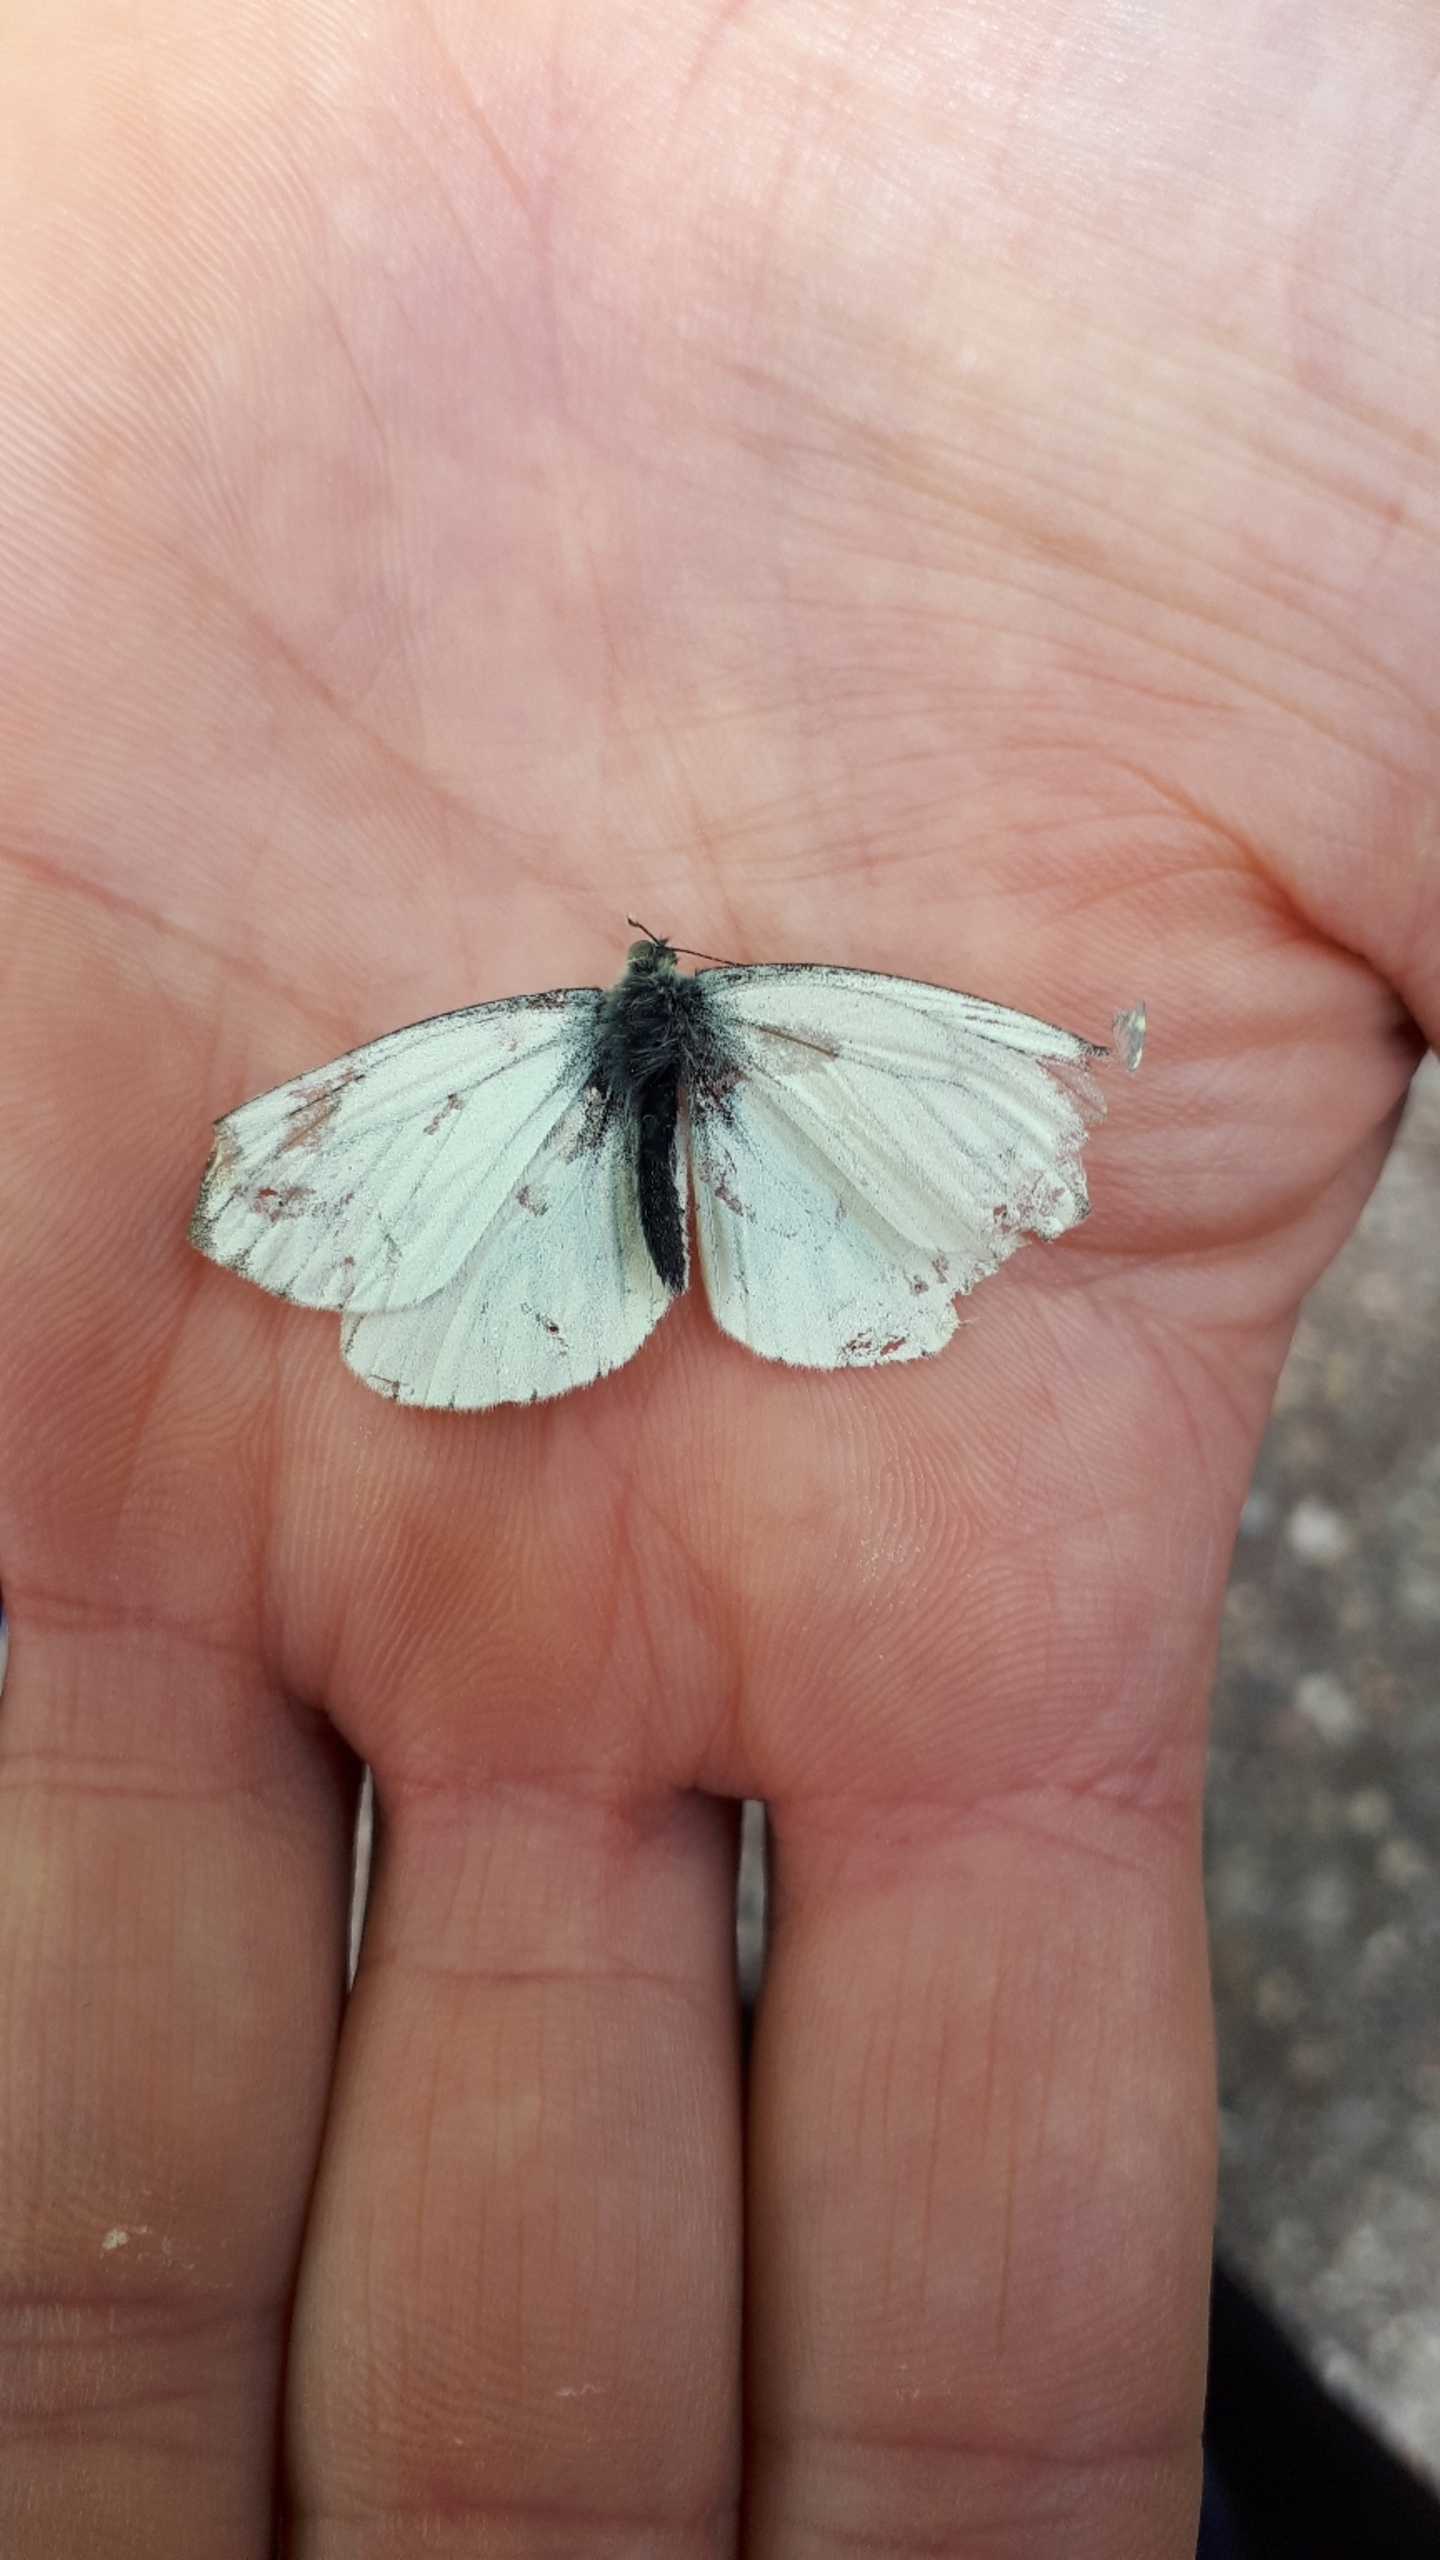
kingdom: Animalia
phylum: Arthropoda
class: Insecta
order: Lepidoptera
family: Pieridae
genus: Pieris
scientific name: Pieris napi
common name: Grønåret kålsommerfugl
